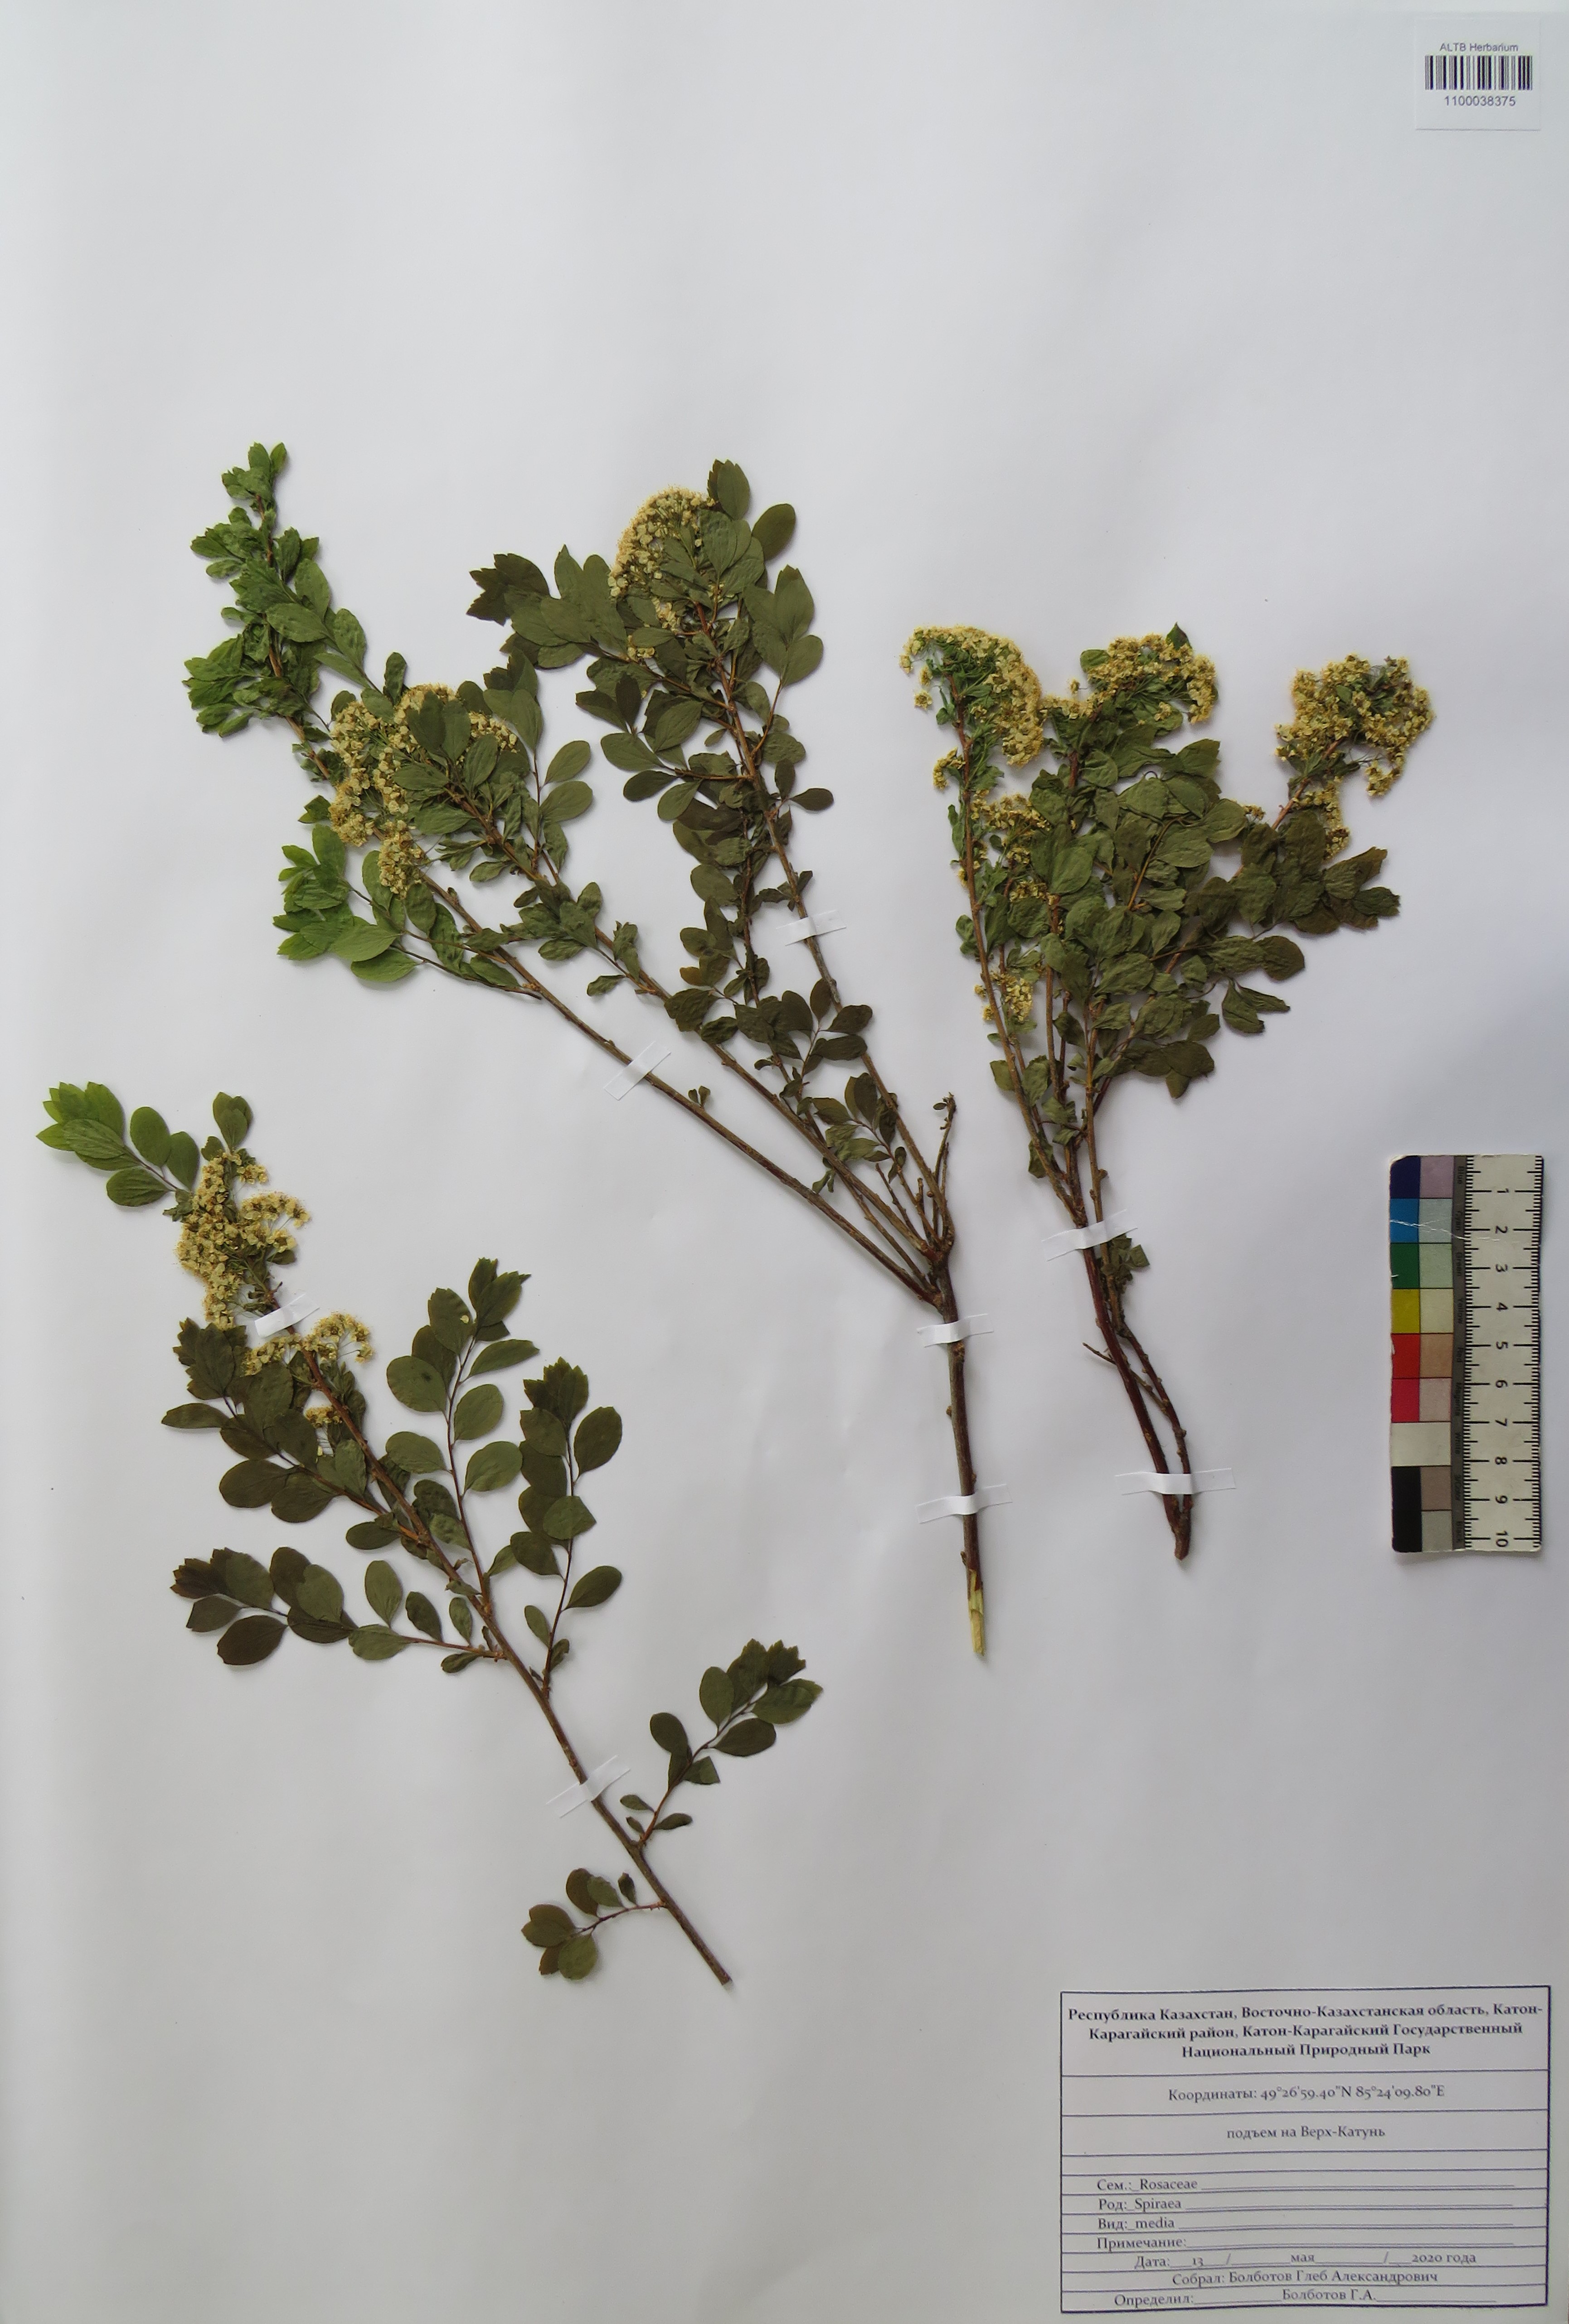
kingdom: Plantae
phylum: Tracheophyta
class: Magnoliopsida
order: Rosales
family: Rosaceae
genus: Spiraea
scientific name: Spiraea media
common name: Russian spiraea
